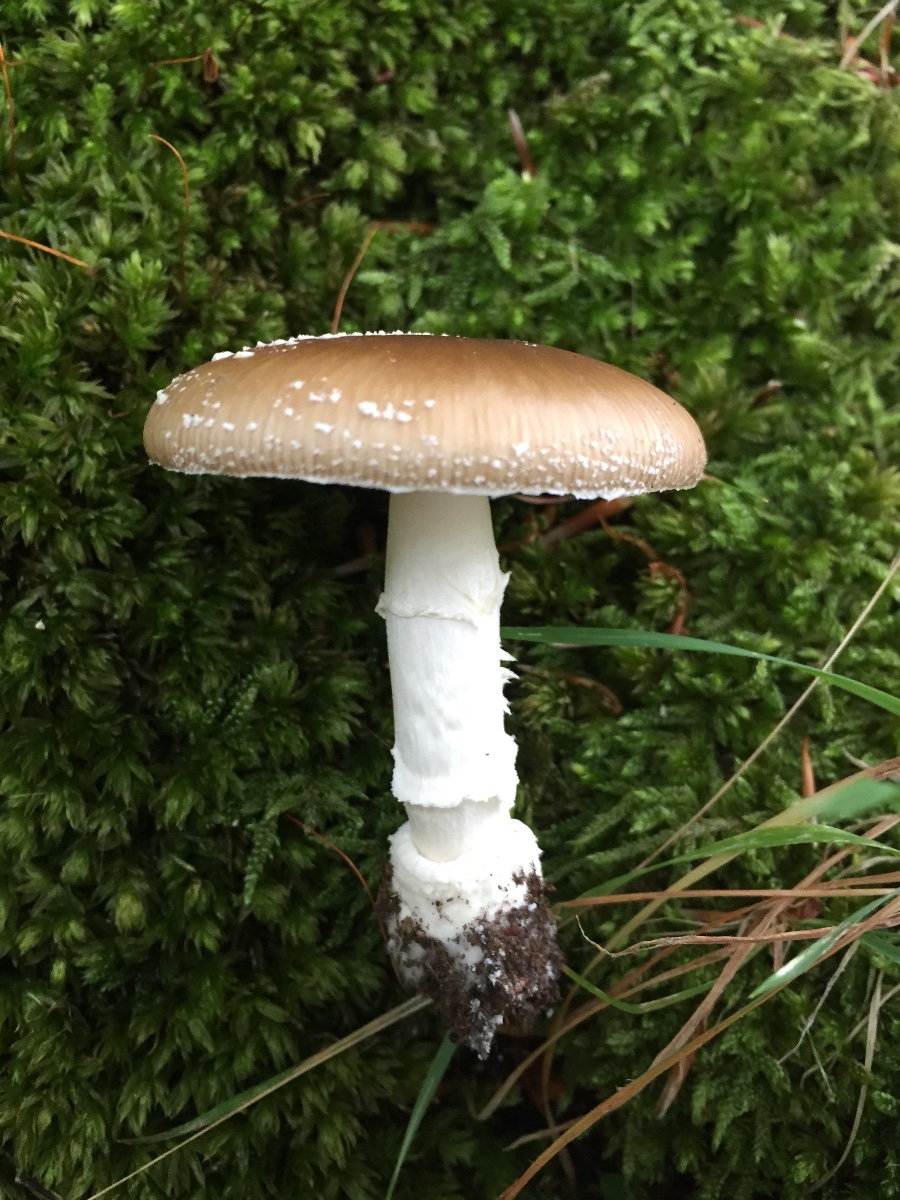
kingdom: Fungi
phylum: Basidiomycota
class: Agaricomycetes
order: Agaricales
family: Amanitaceae
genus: Amanita
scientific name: Amanita pantherina
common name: panter-fluesvamp
